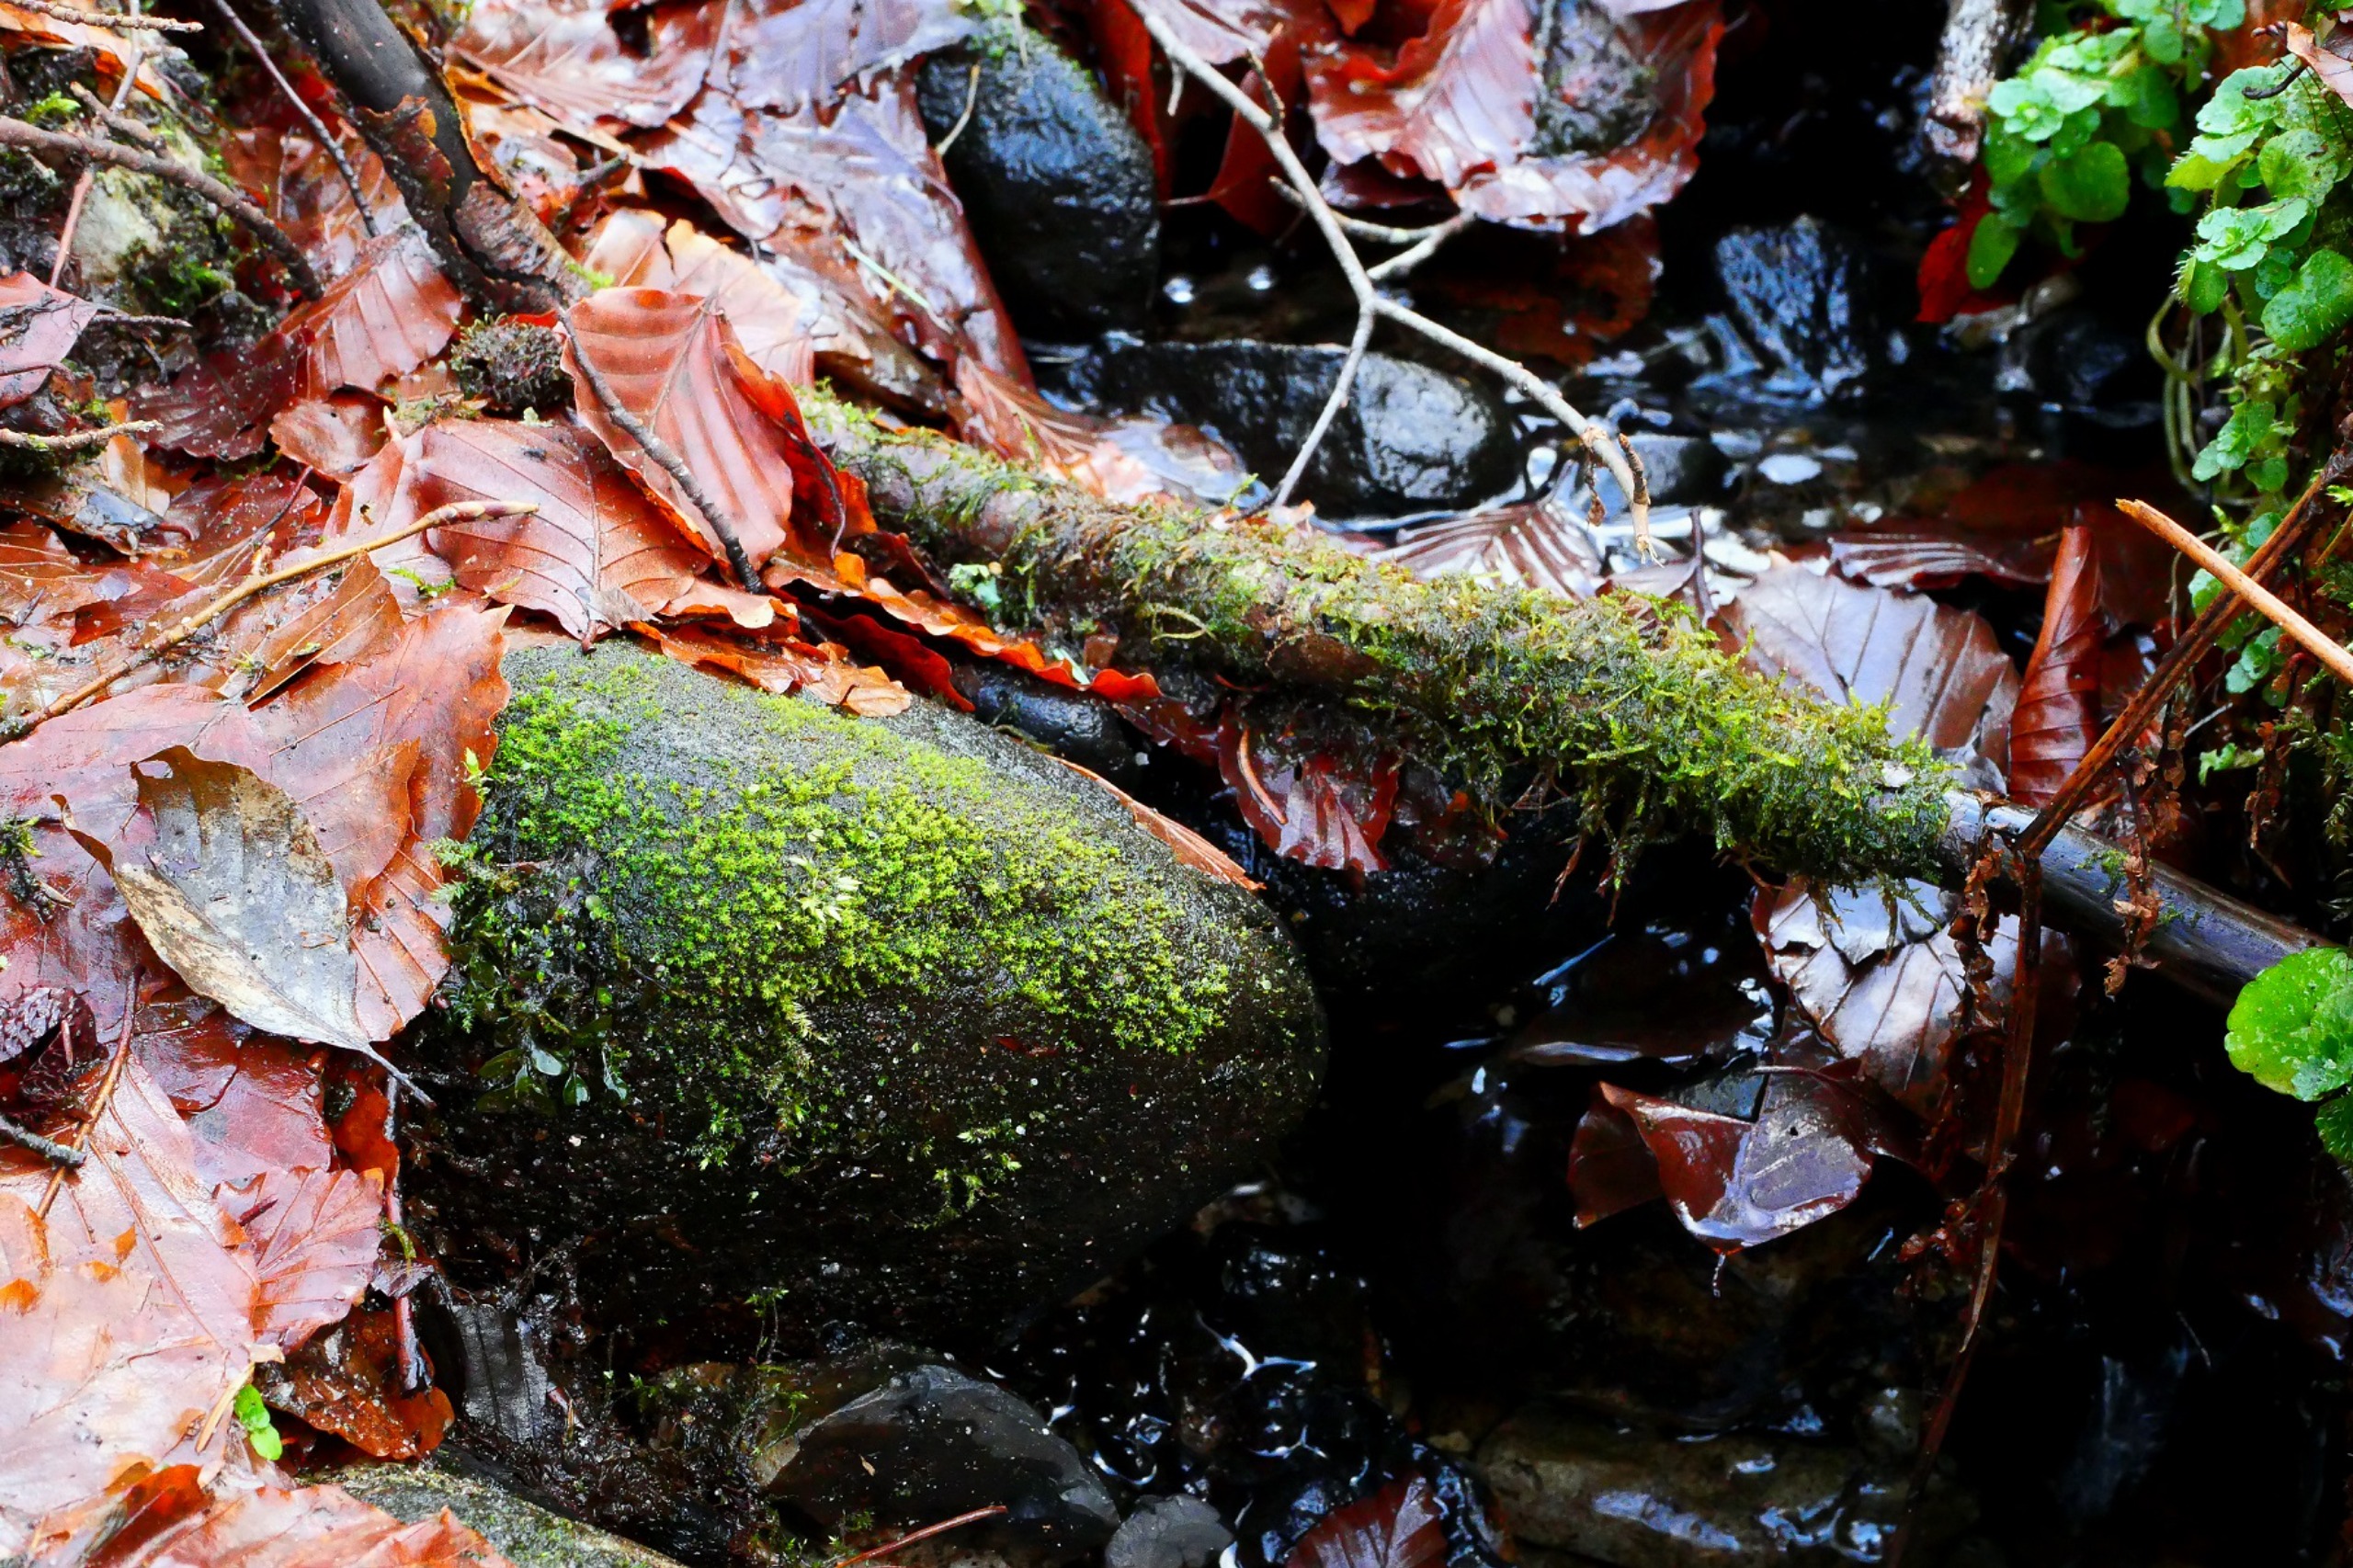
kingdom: Plantae
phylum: Bryophyta
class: Bryopsida
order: Dicranales
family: Aongstroemiaceae
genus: Dichodontium
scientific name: Dichodontium pellucidum
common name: Mamilløs bredtand
